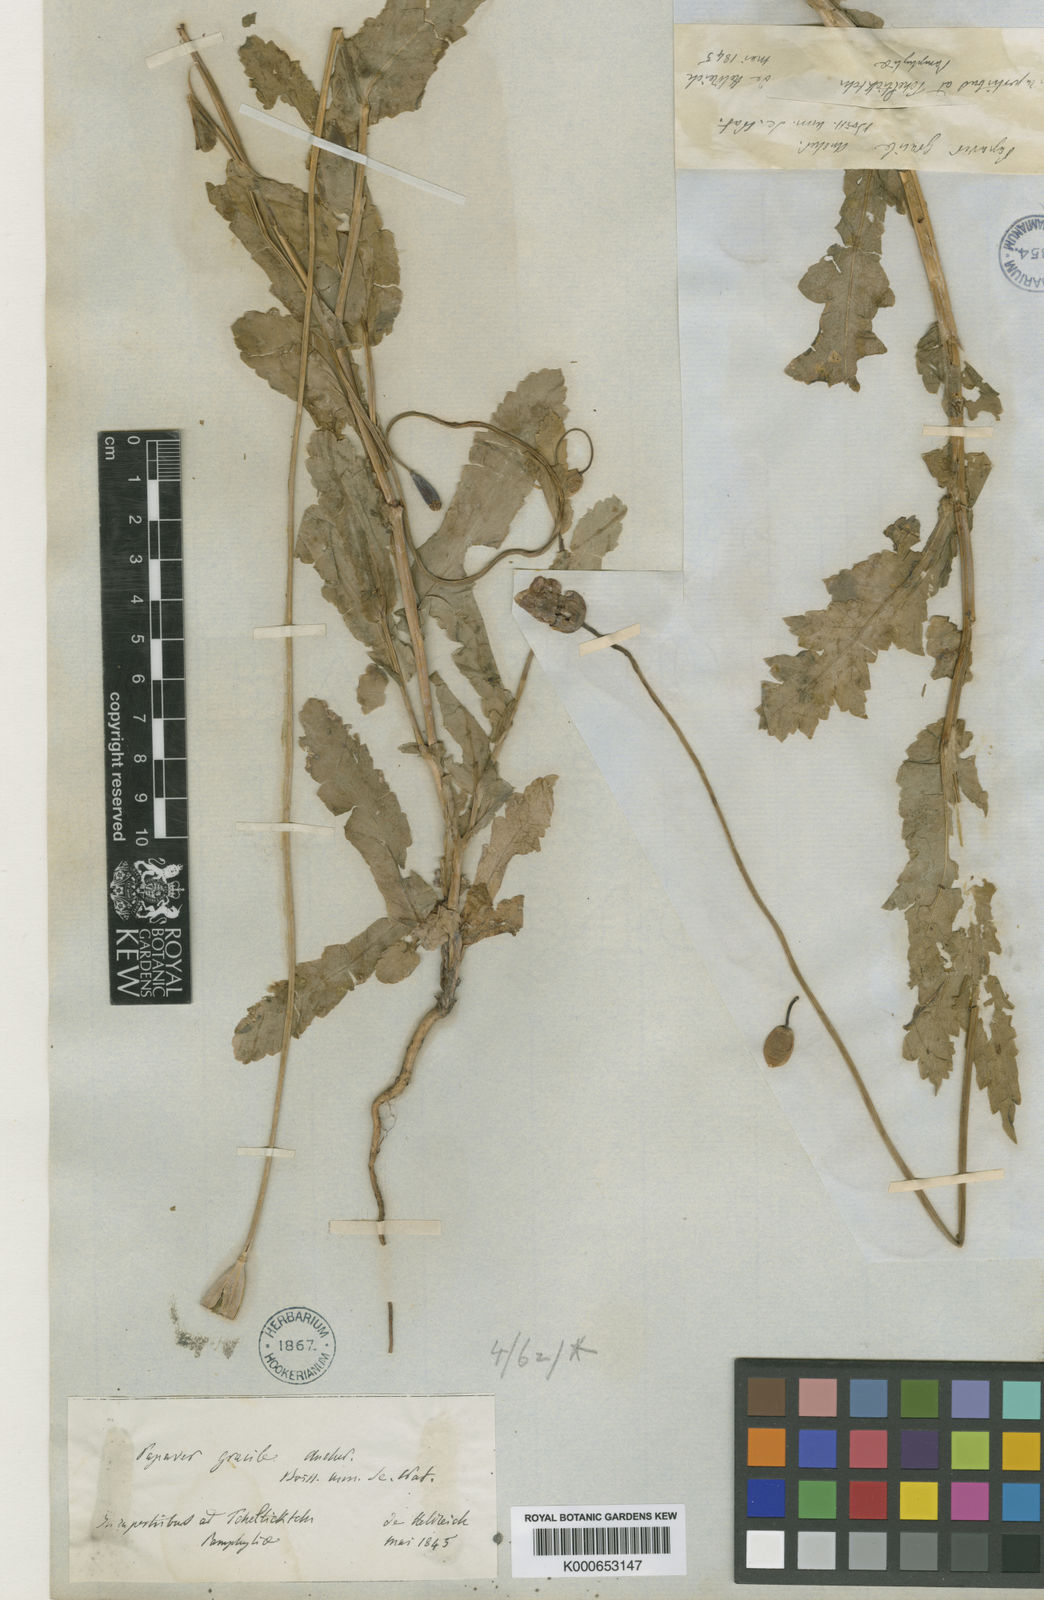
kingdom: Plantae
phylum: Tracheophyta
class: Magnoliopsida
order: Ranunculales
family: Papaveraceae
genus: Papaver
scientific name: Papaver gracile
